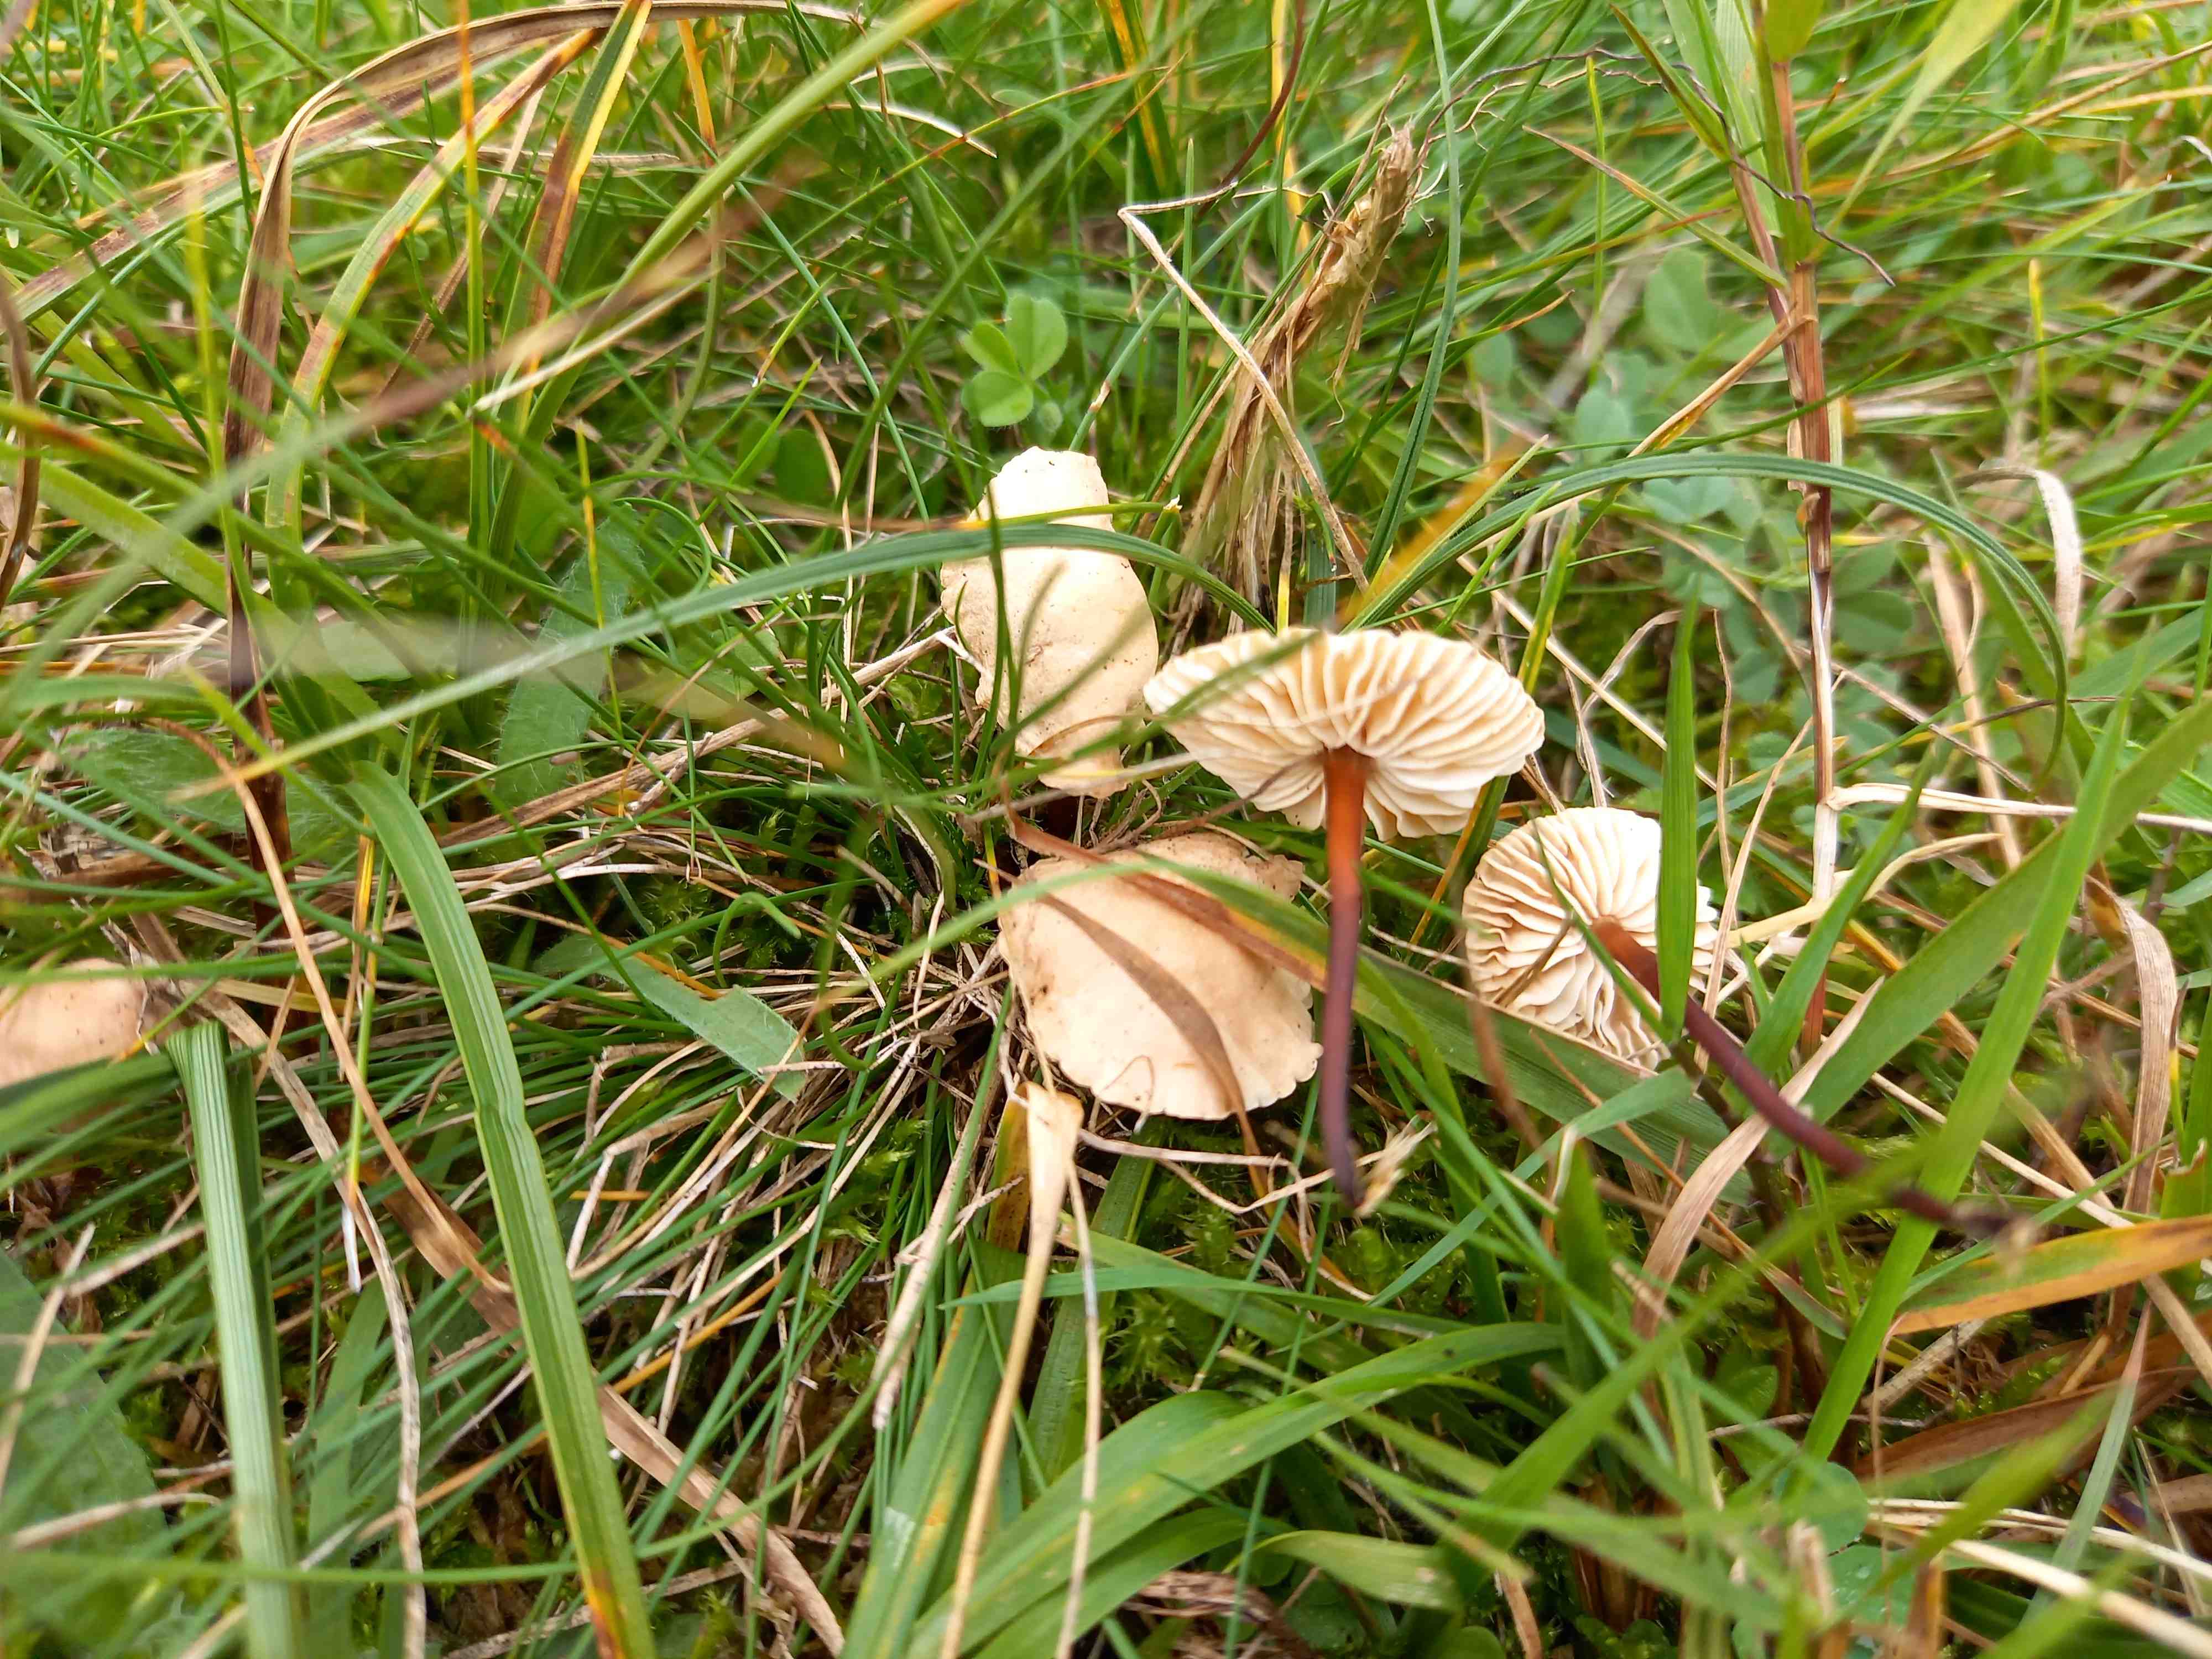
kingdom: Fungi
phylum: Basidiomycota
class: Agaricomycetes
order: Agaricales
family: Omphalotaceae
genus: Mycetinis
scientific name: Mycetinis scorodonius
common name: lille løghat
